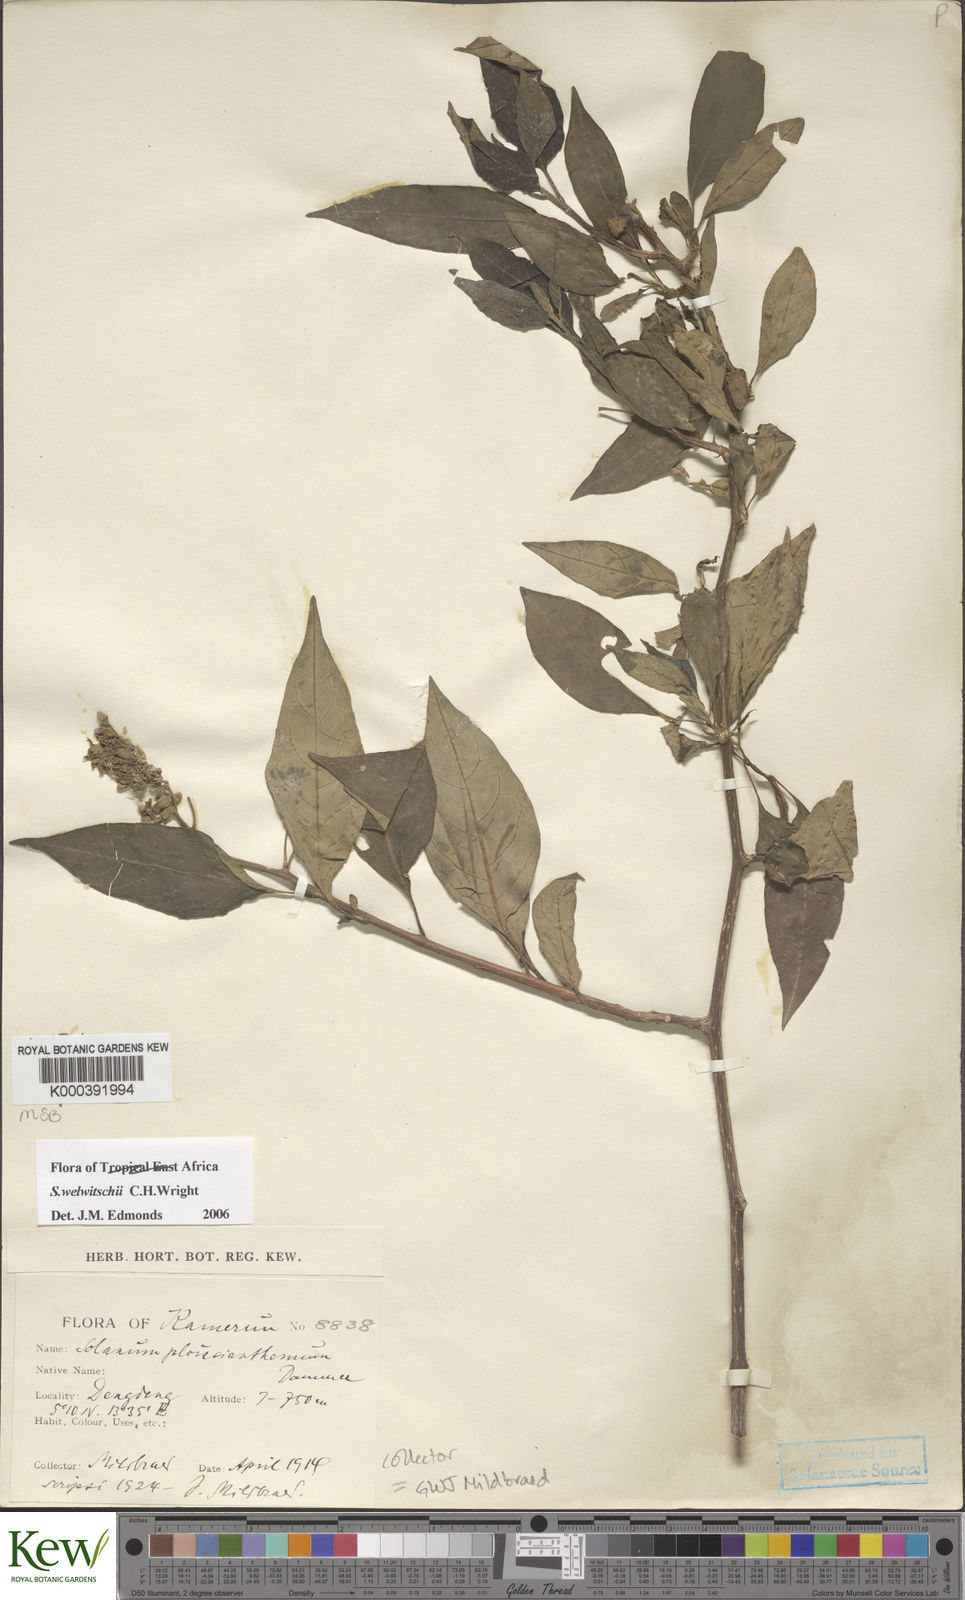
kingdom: Plantae
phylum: Tracheophyta
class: Magnoliopsida
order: Solanales
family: Solanaceae
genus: Solanum
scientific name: Solanum terminale
